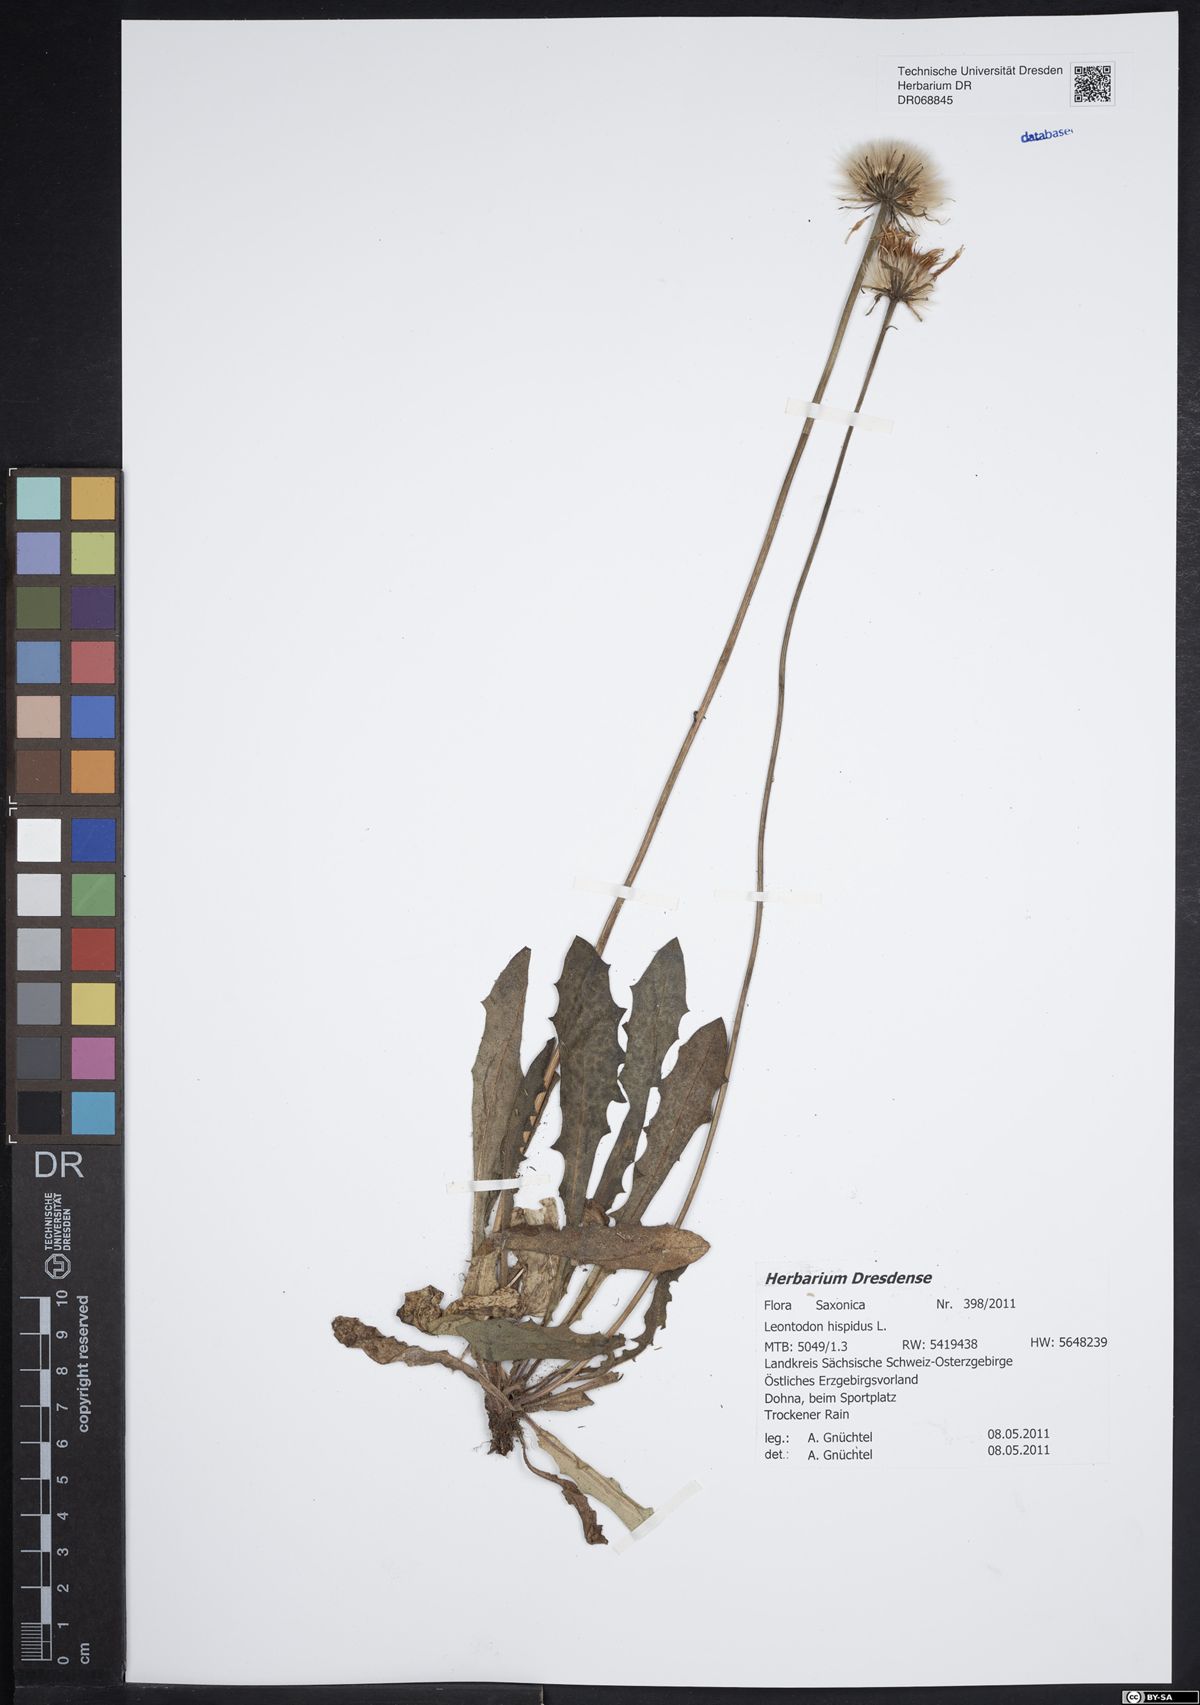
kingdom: Plantae
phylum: Tracheophyta
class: Magnoliopsida
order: Asterales
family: Asteraceae
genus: Leontodon
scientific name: Leontodon hispidus
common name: Rough hawkbit
